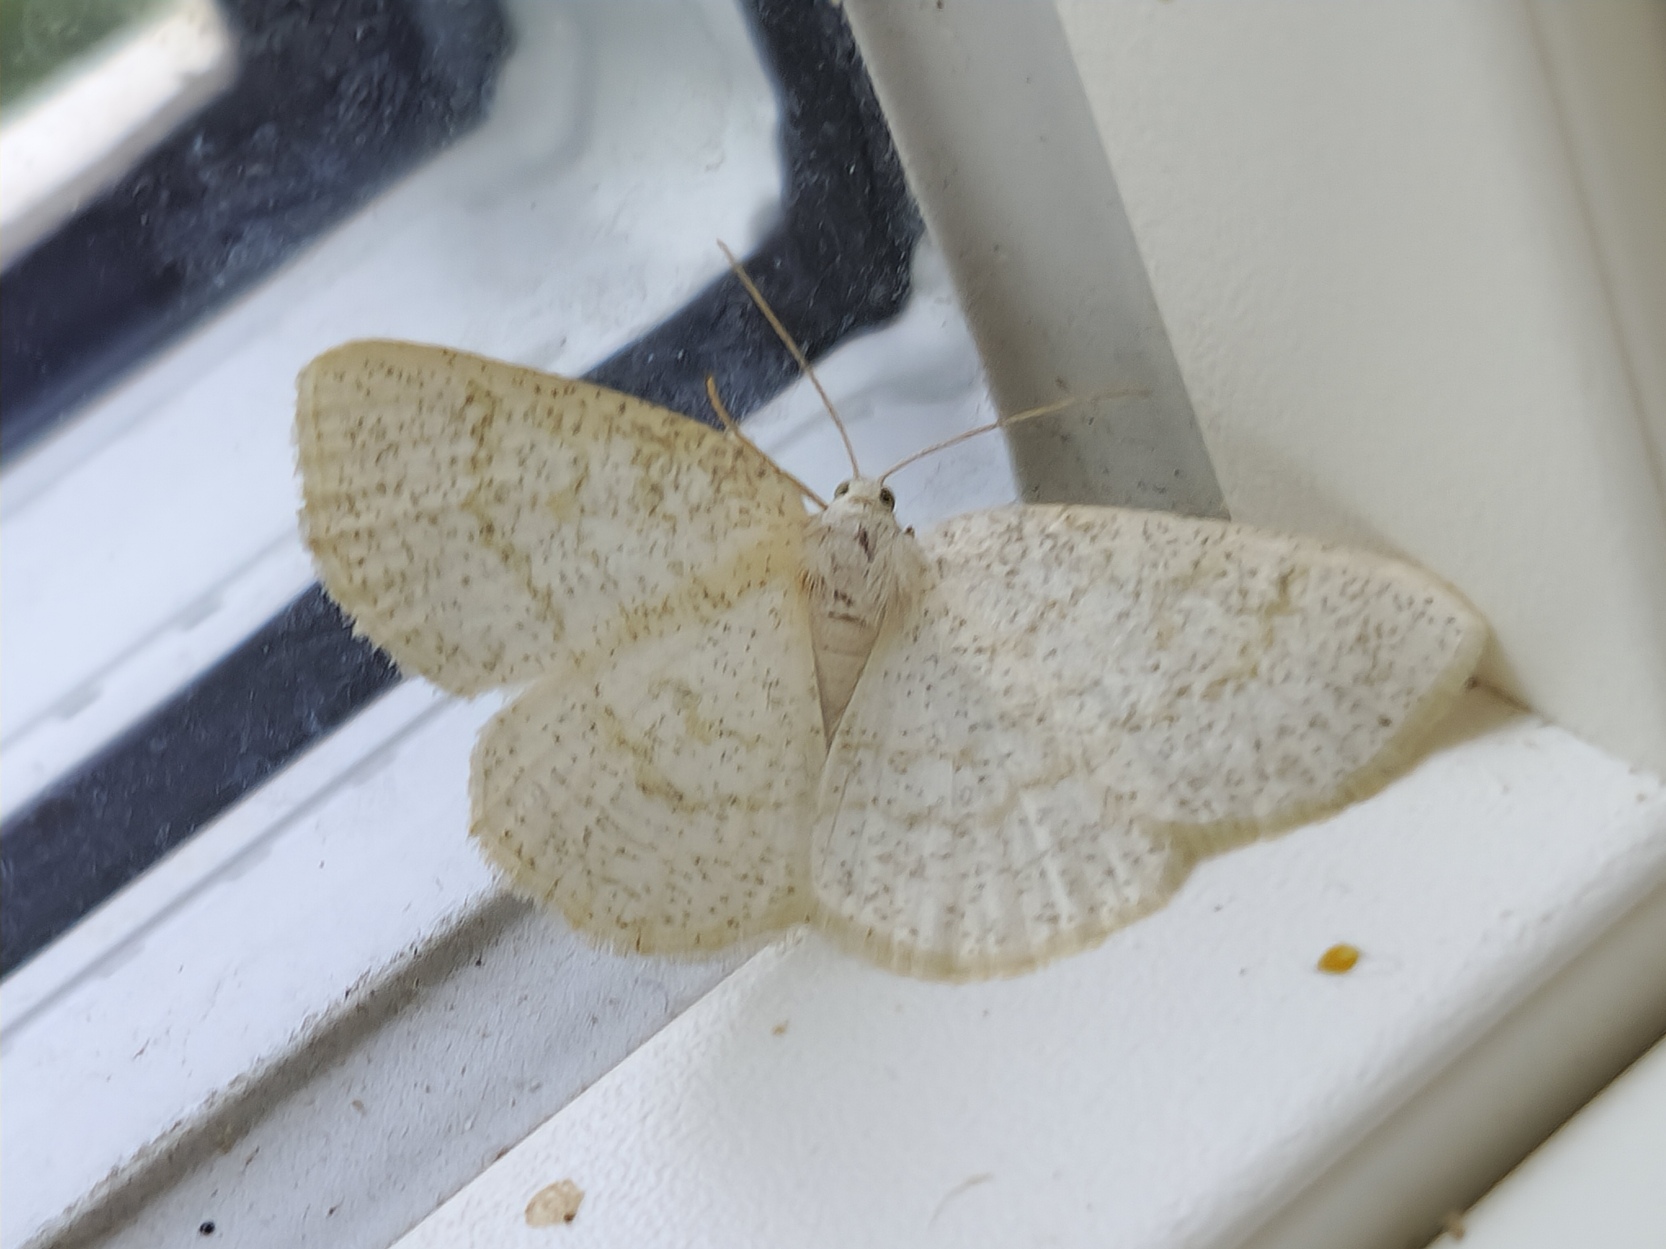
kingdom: Animalia
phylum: Arthropoda
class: Insecta
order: Lepidoptera
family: Geometridae
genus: Cabera
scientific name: Cabera exanthemata
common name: Gulhvid stregmåler
